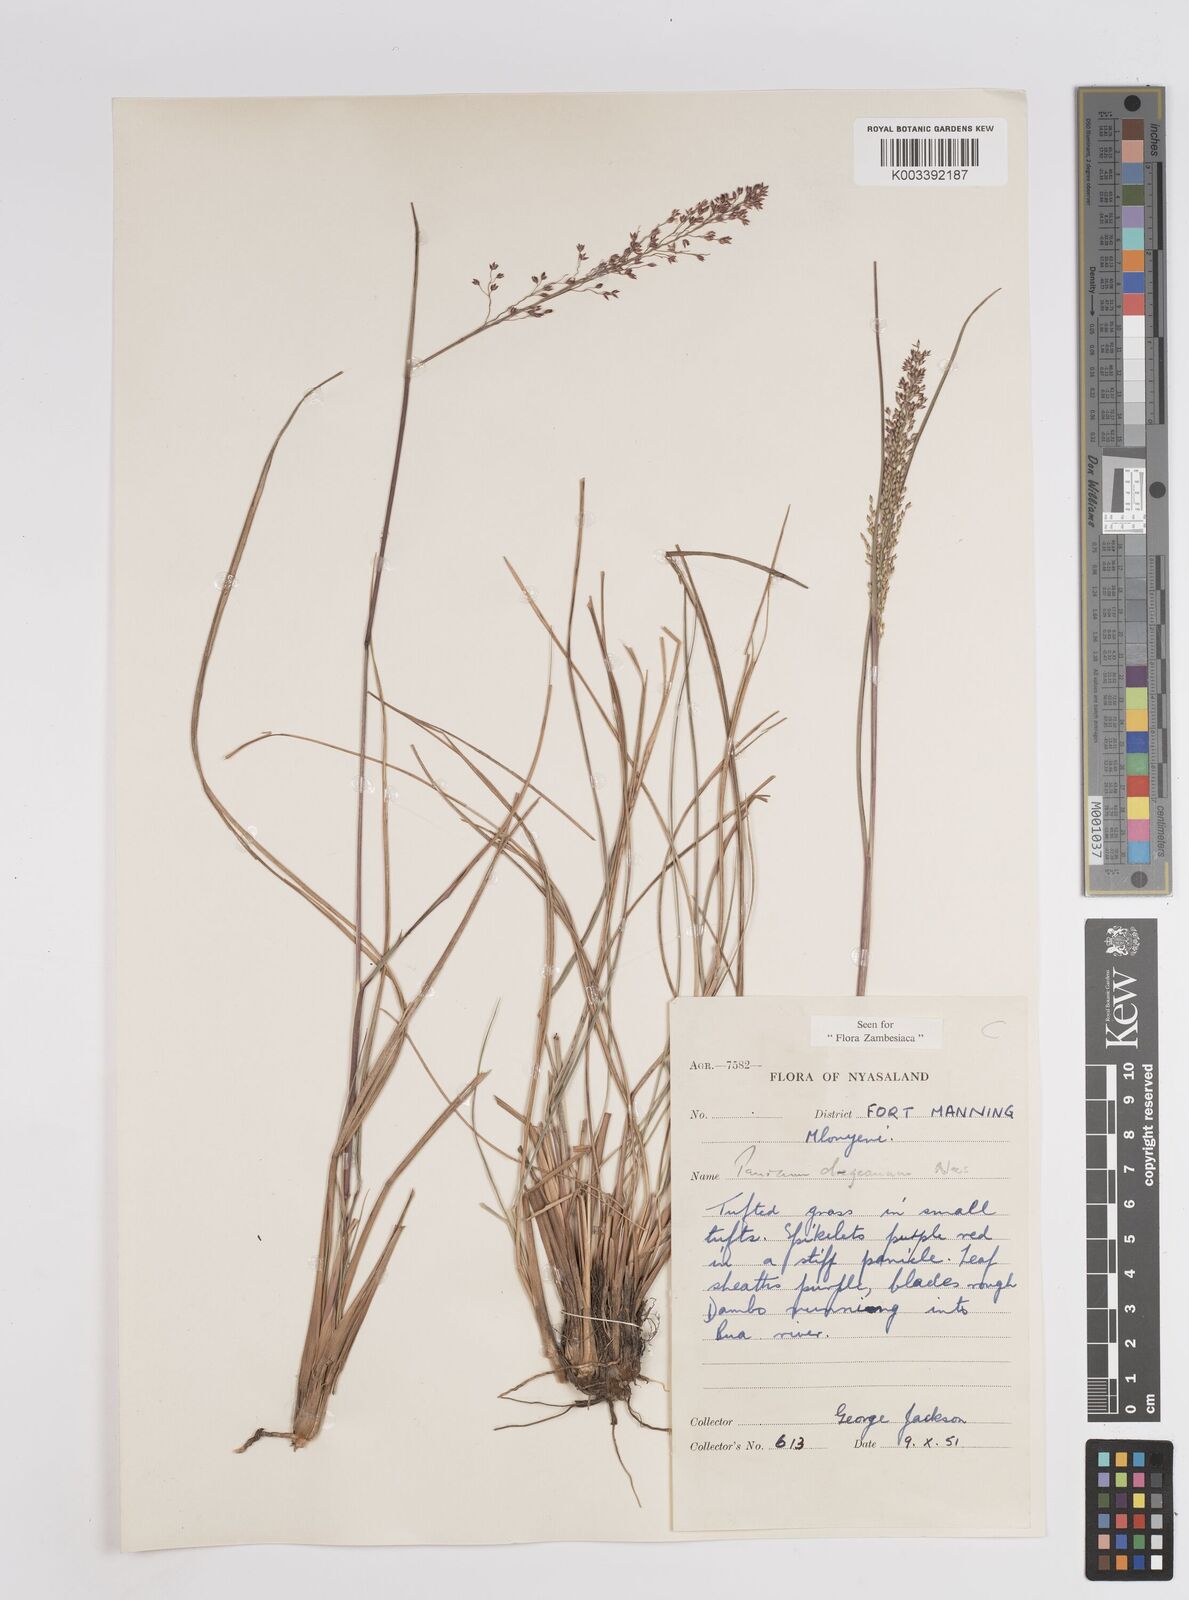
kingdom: Plantae
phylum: Tracheophyta
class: Liliopsida
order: Poales
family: Poaceae
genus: Panicum
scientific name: Panicum dregeanum
